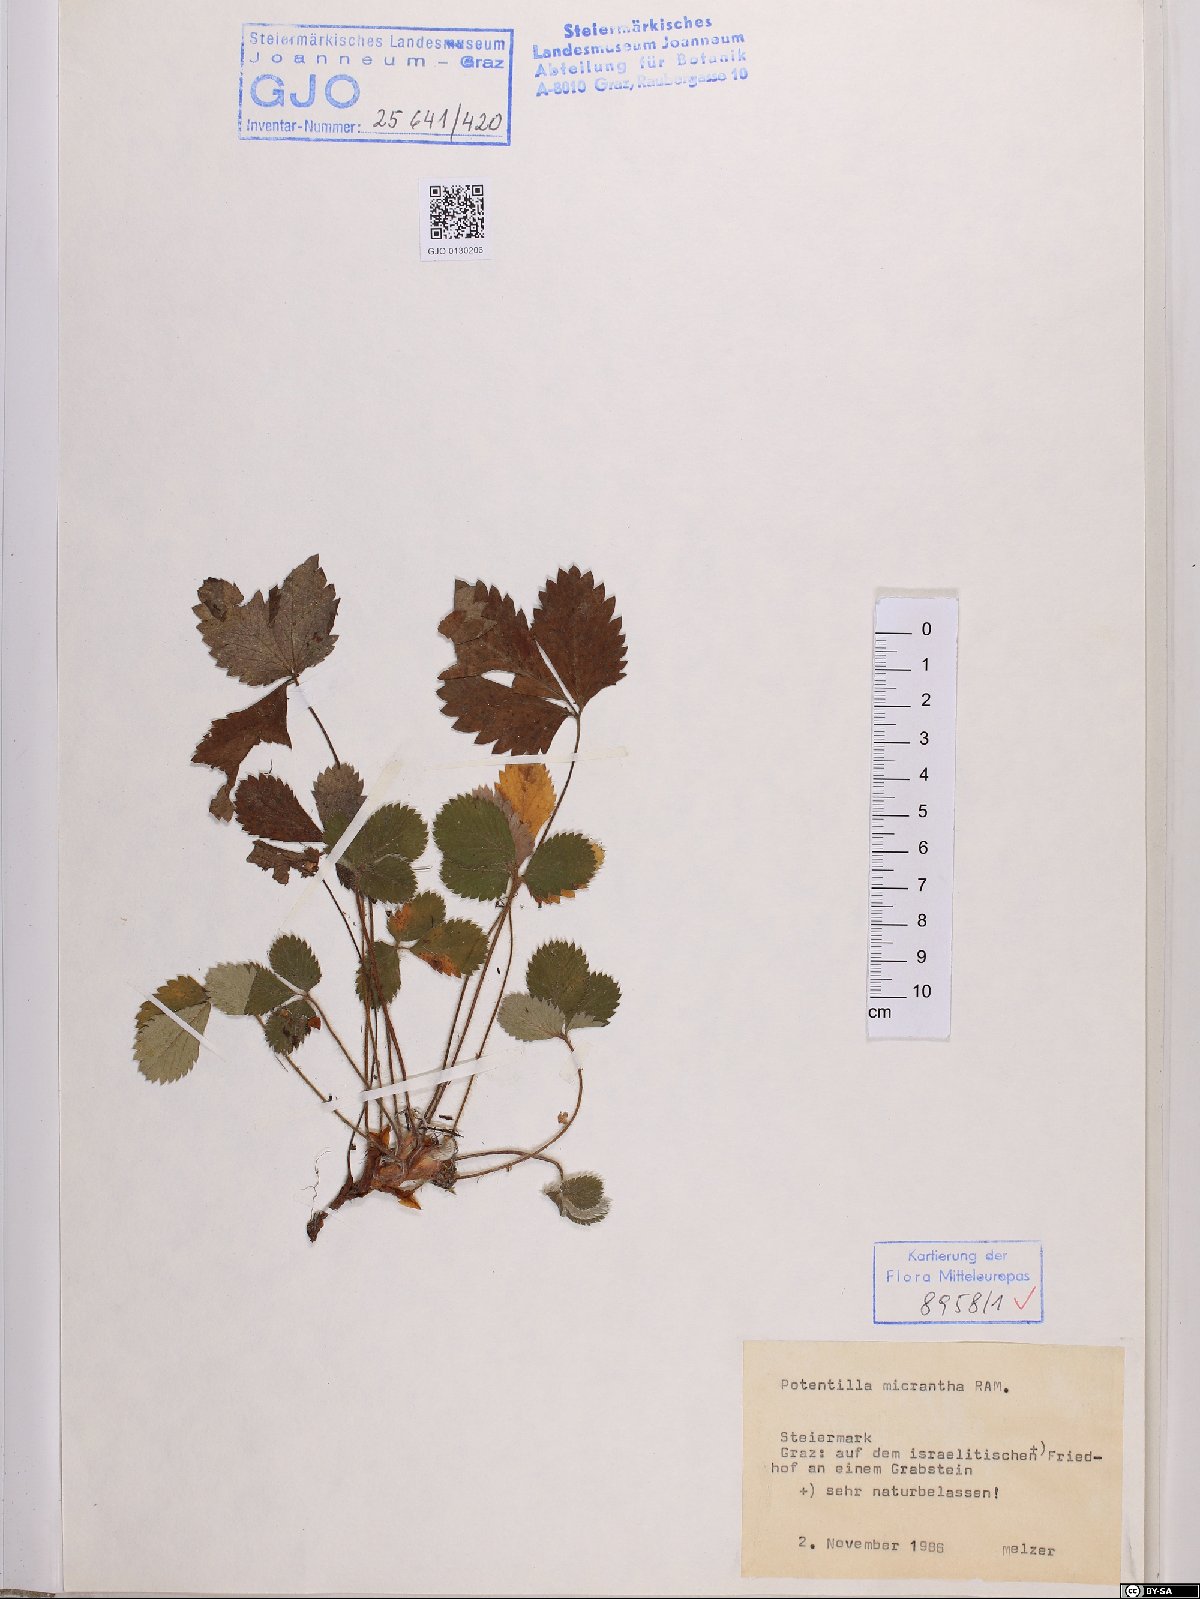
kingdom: Plantae
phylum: Tracheophyta
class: Magnoliopsida
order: Rosales
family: Rosaceae
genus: Potentilla
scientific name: Potentilla micrantha
